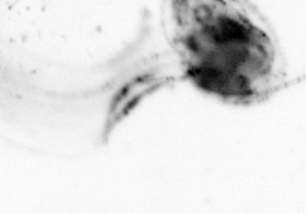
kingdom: Animalia
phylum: Chordata
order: Copelata
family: Fritillariidae
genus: Appendicularia
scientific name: Appendicularia
